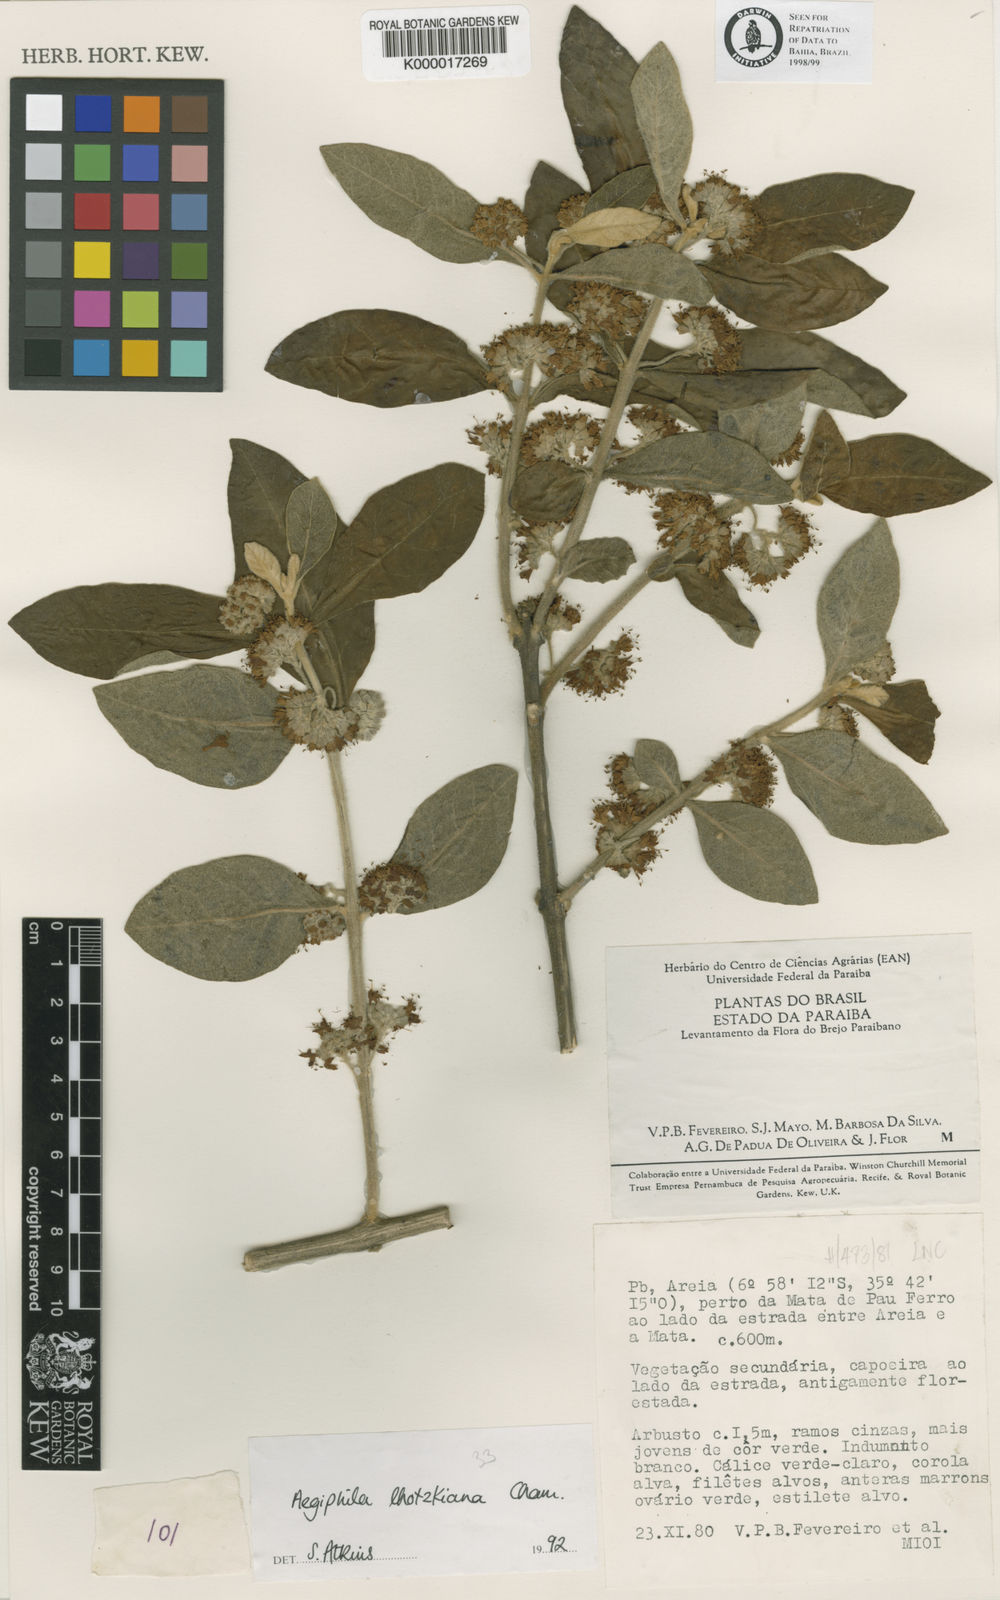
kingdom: Plantae
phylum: Tracheophyta
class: Magnoliopsida
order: Lamiales
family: Lamiaceae
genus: Aegiphila
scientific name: Aegiphila verticillata
